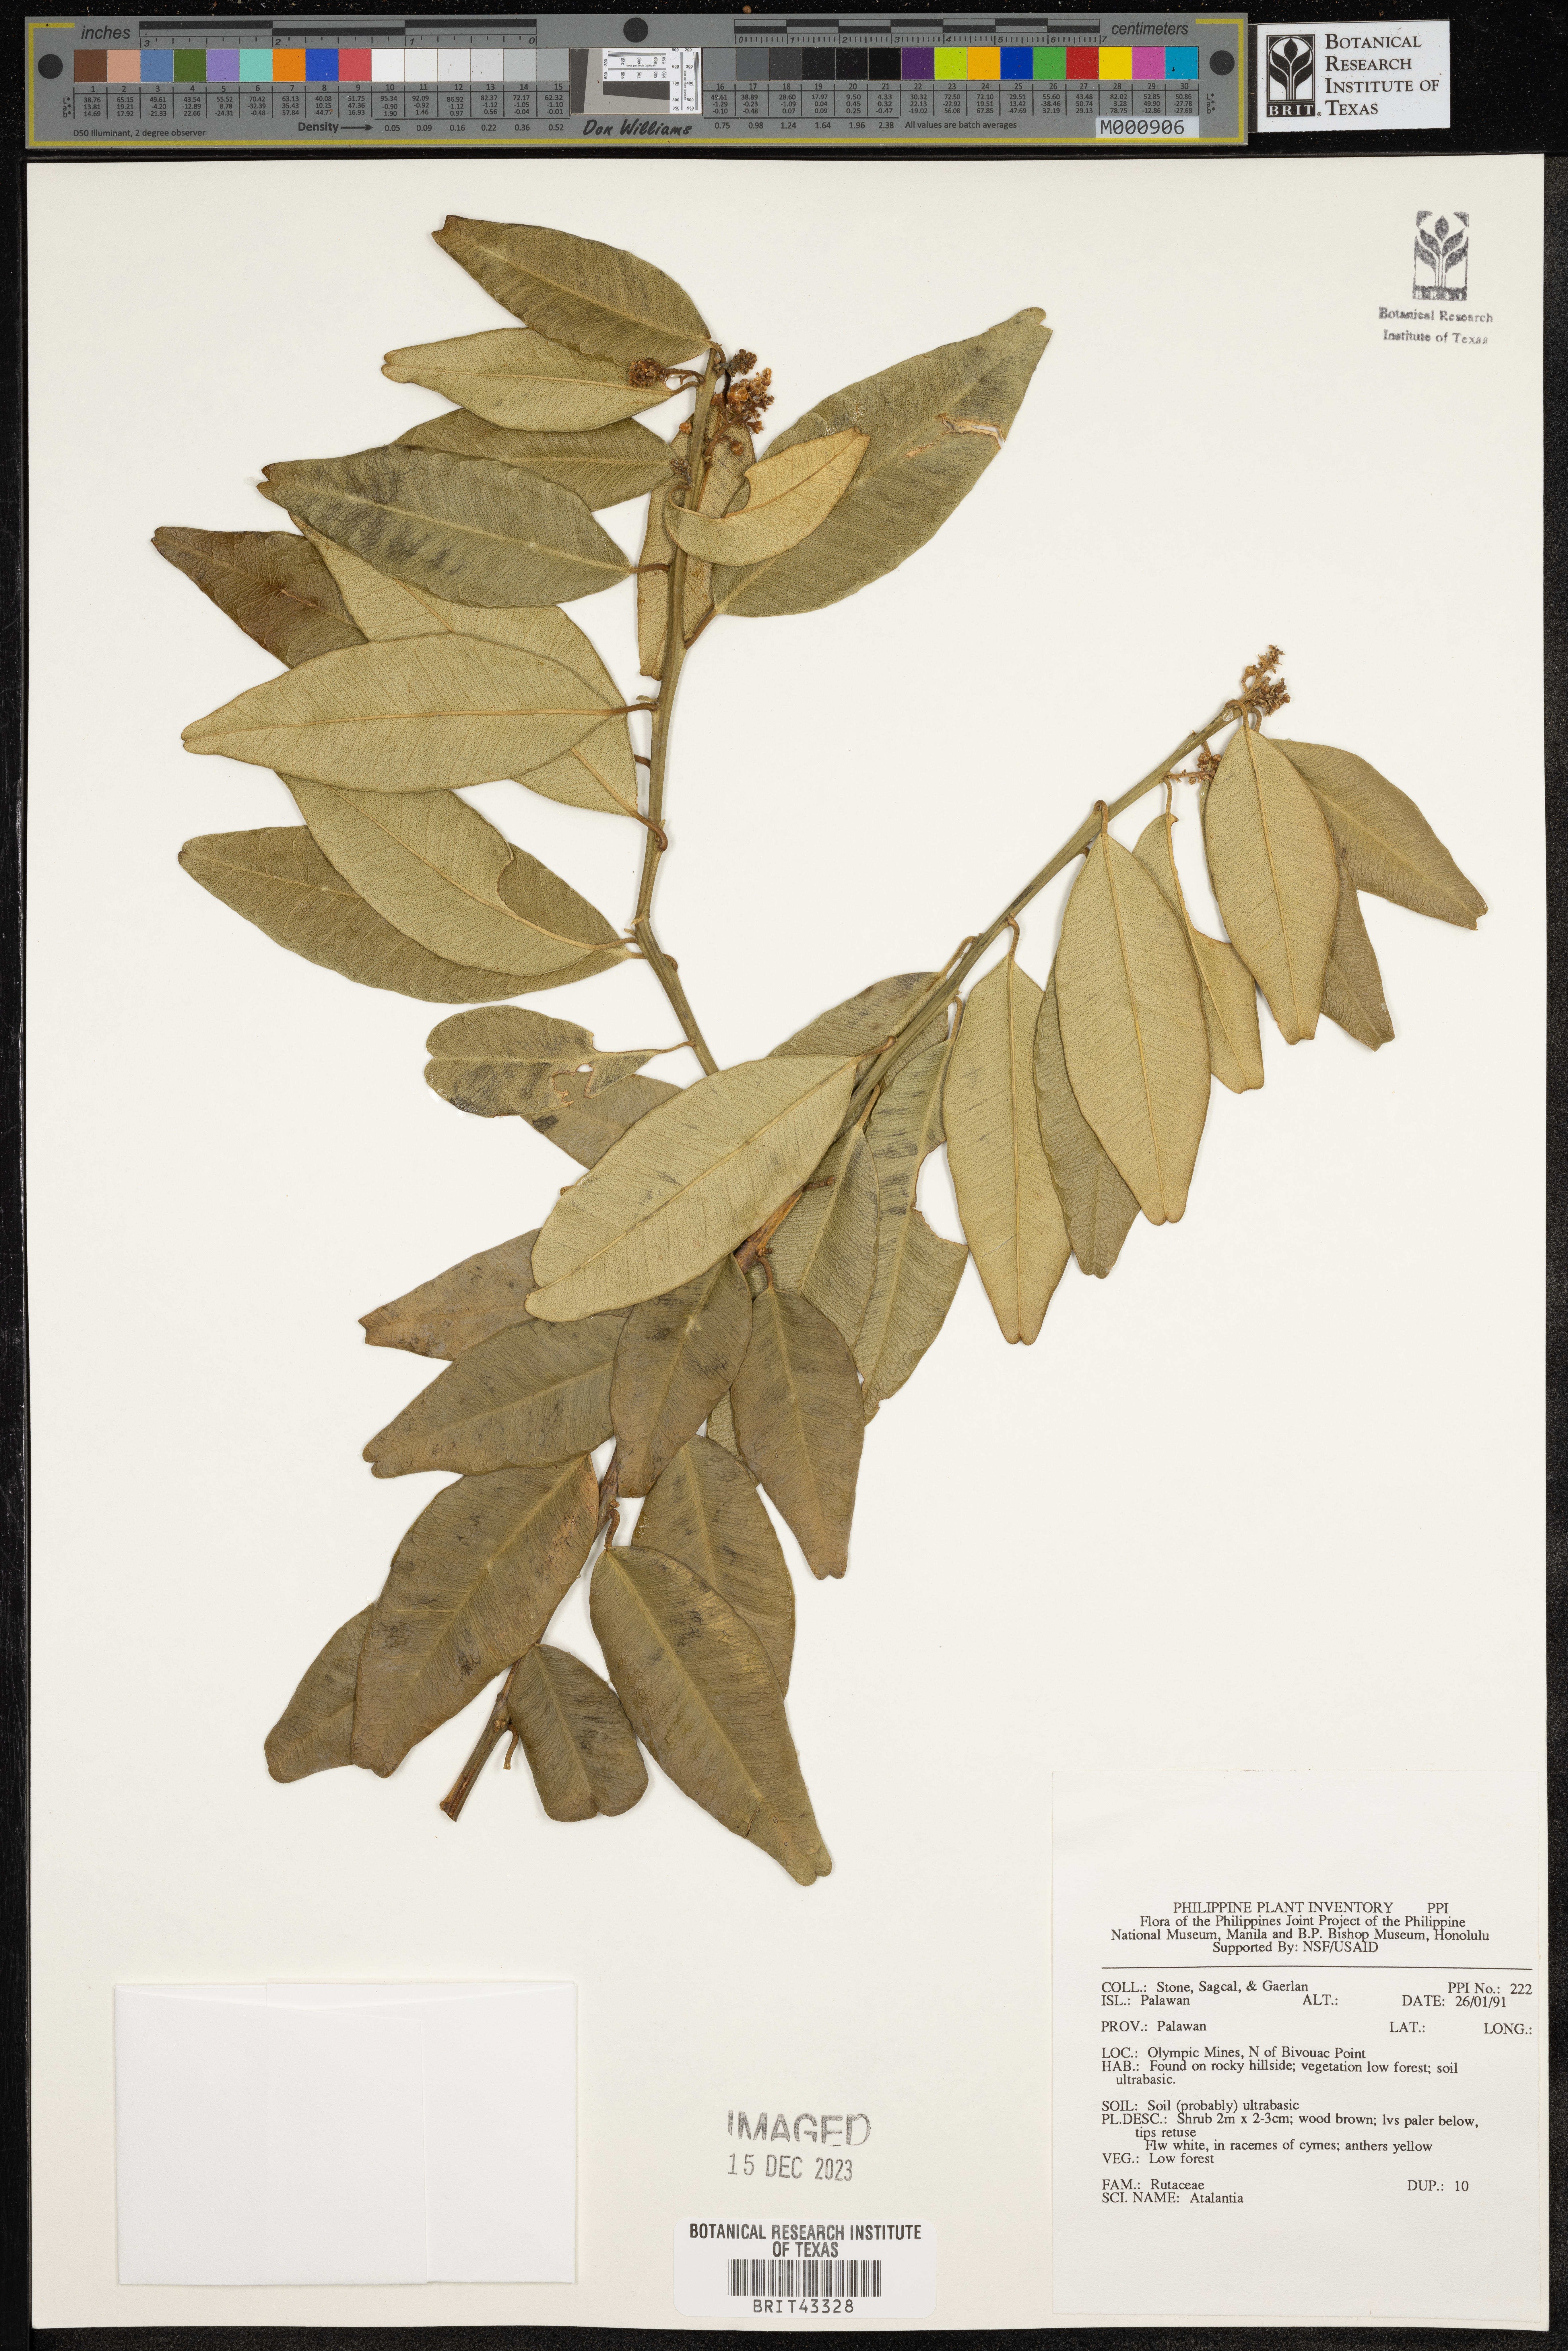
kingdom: Plantae
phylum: Tracheophyta
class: Magnoliopsida
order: Sapindales
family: Rutaceae
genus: Atalantia
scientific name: Atalantia
